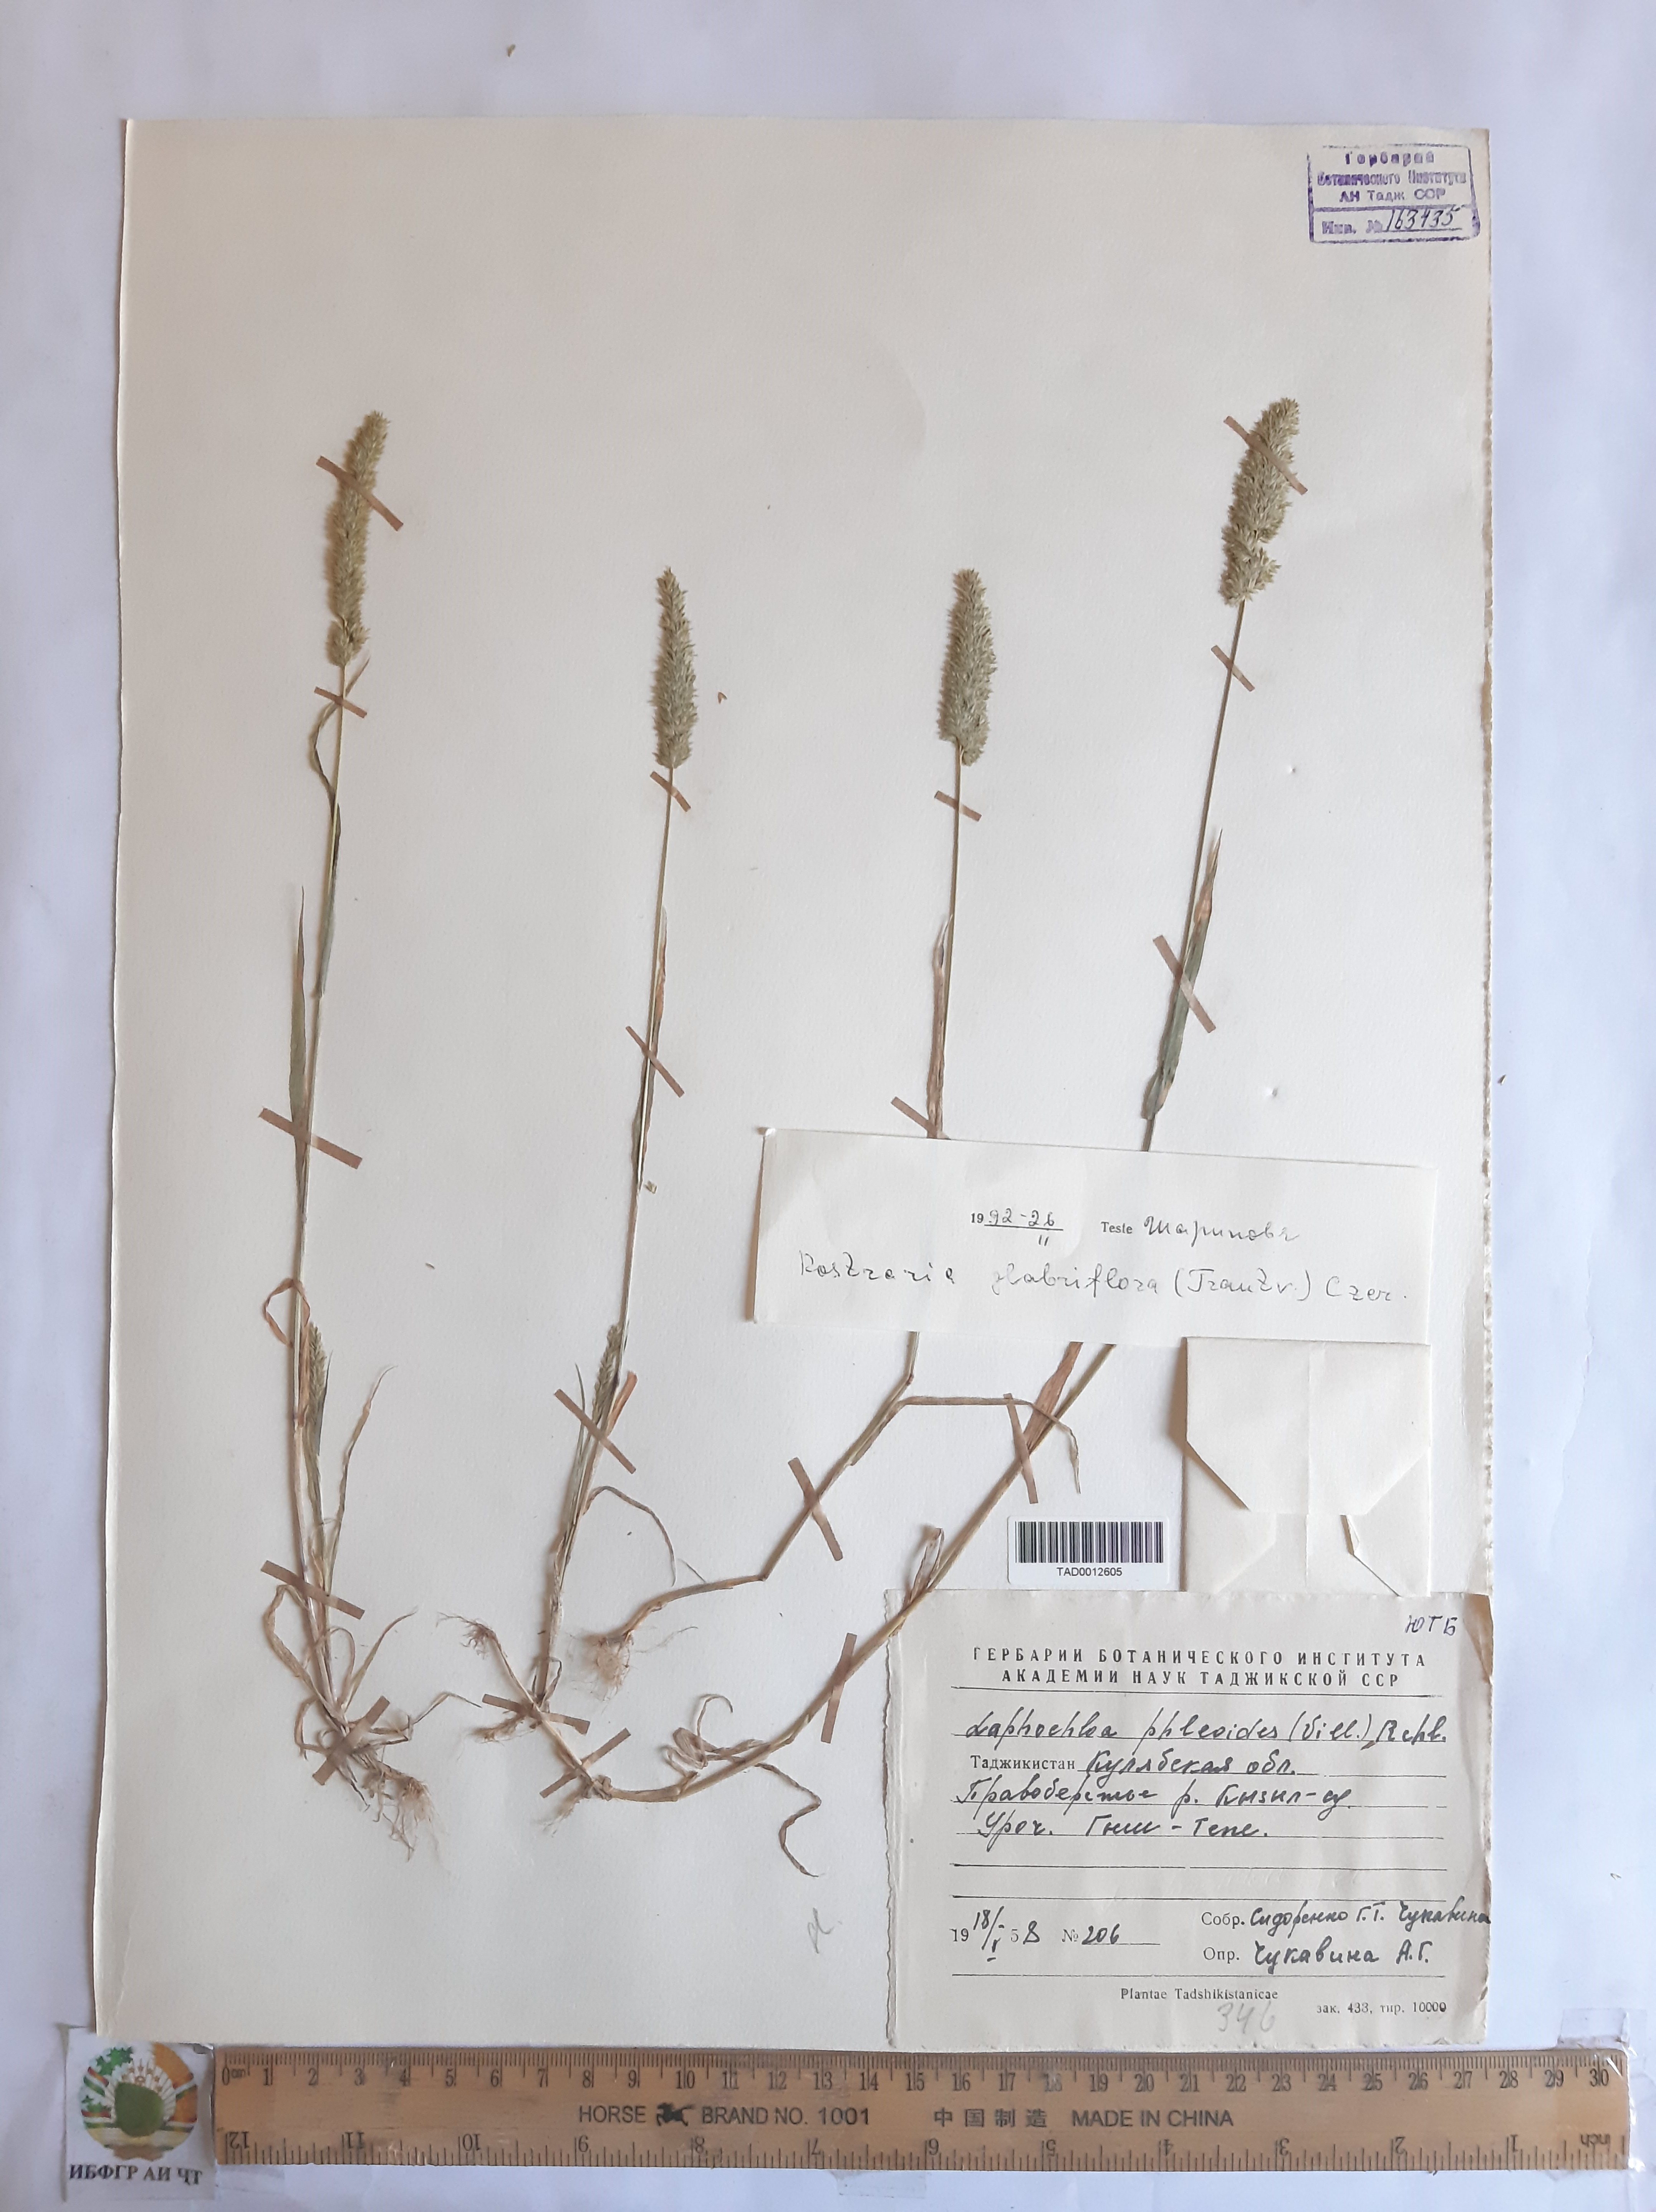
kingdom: Plantae
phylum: Tracheophyta
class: Liliopsida
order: Poales
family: Poaceae
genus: Rostraria
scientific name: Rostraria cristata
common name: Mediterranean hair-grass
